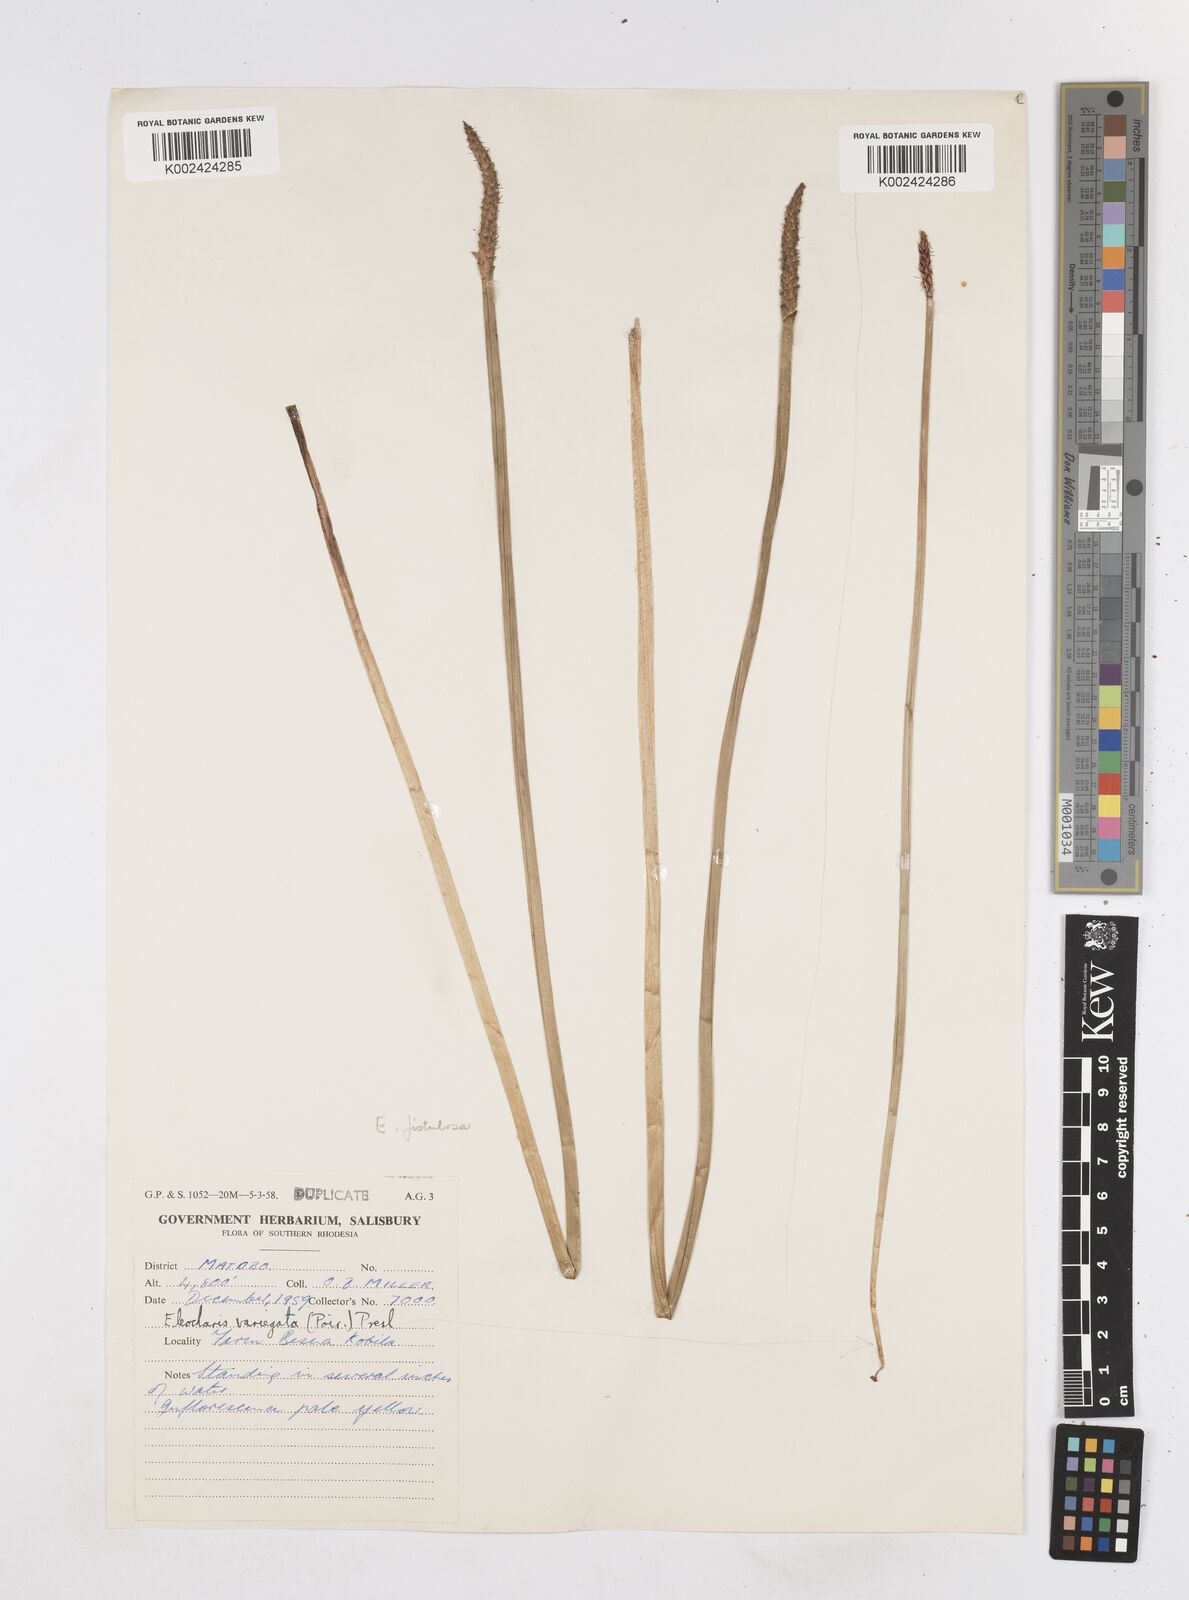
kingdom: Plantae
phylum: Tracheophyta
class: Liliopsida
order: Poales
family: Cyperaceae
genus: Eleocharis
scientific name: Eleocharis variegata
